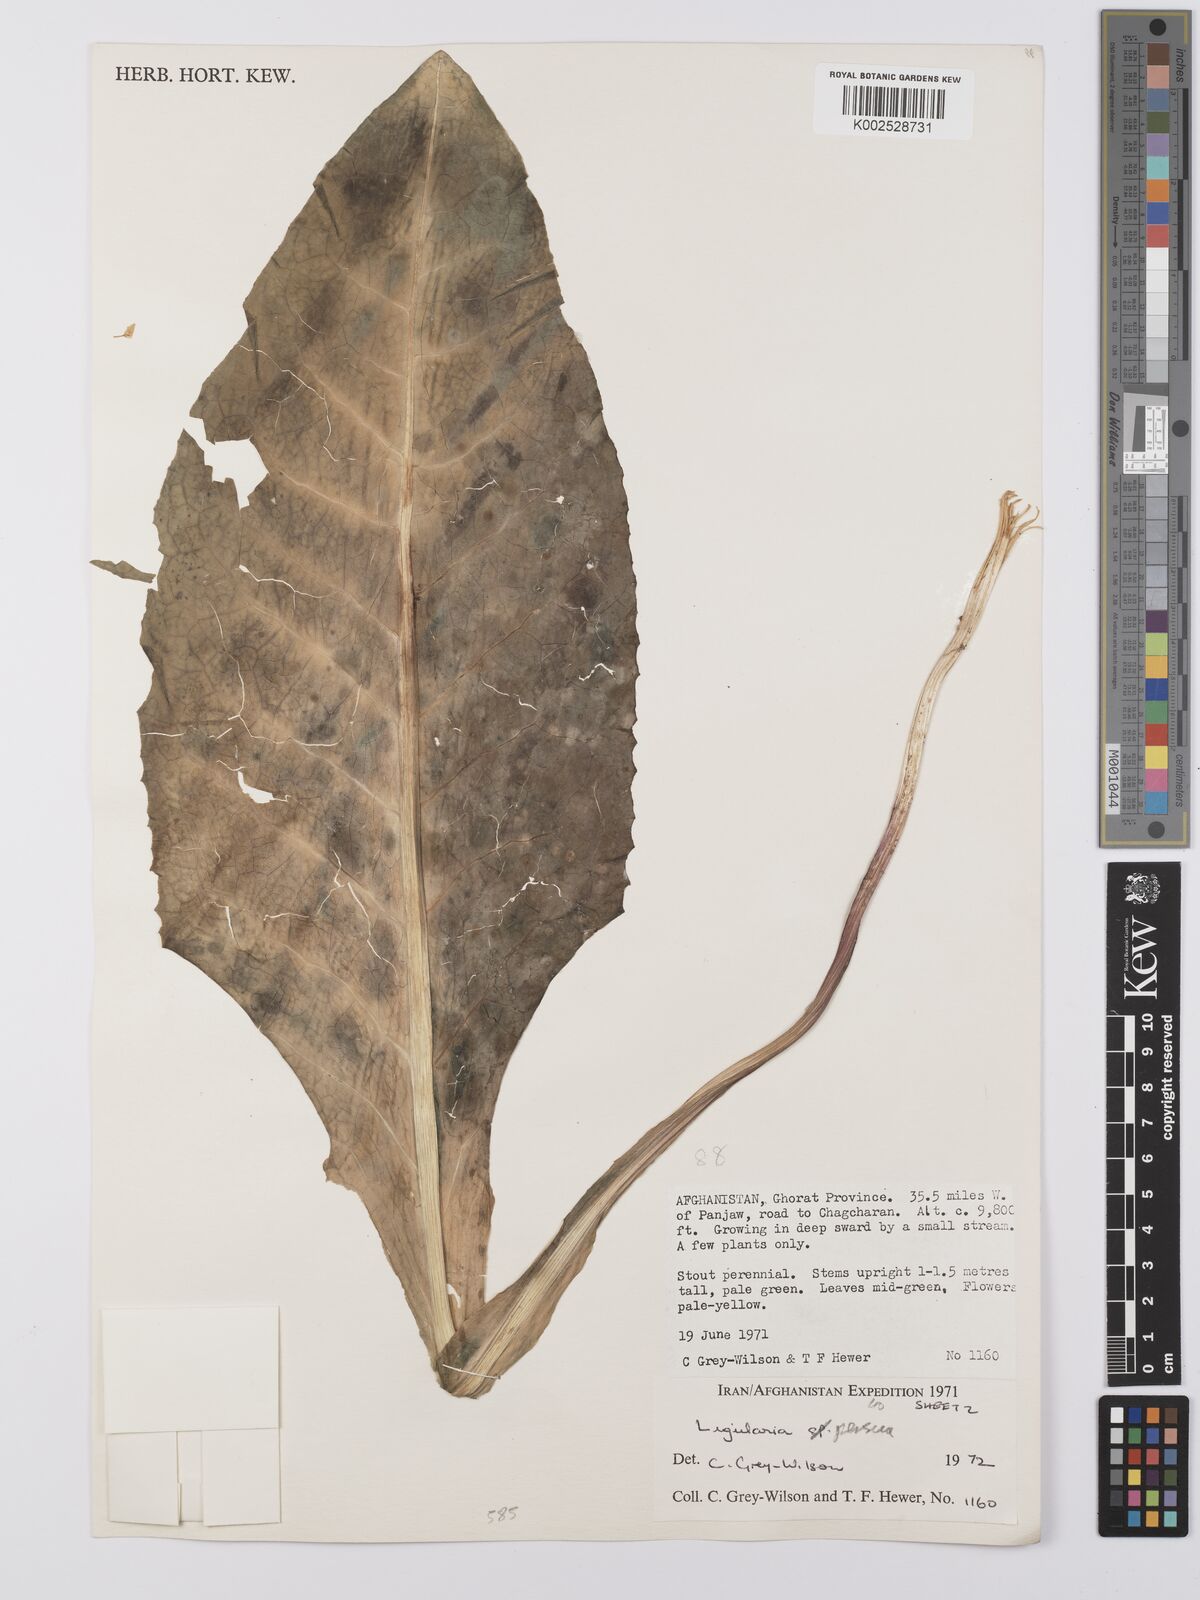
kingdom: Plantae
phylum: Tracheophyta
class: Magnoliopsida
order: Asterales
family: Asteraceae
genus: Ligularia
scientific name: Ligularia afghanica
